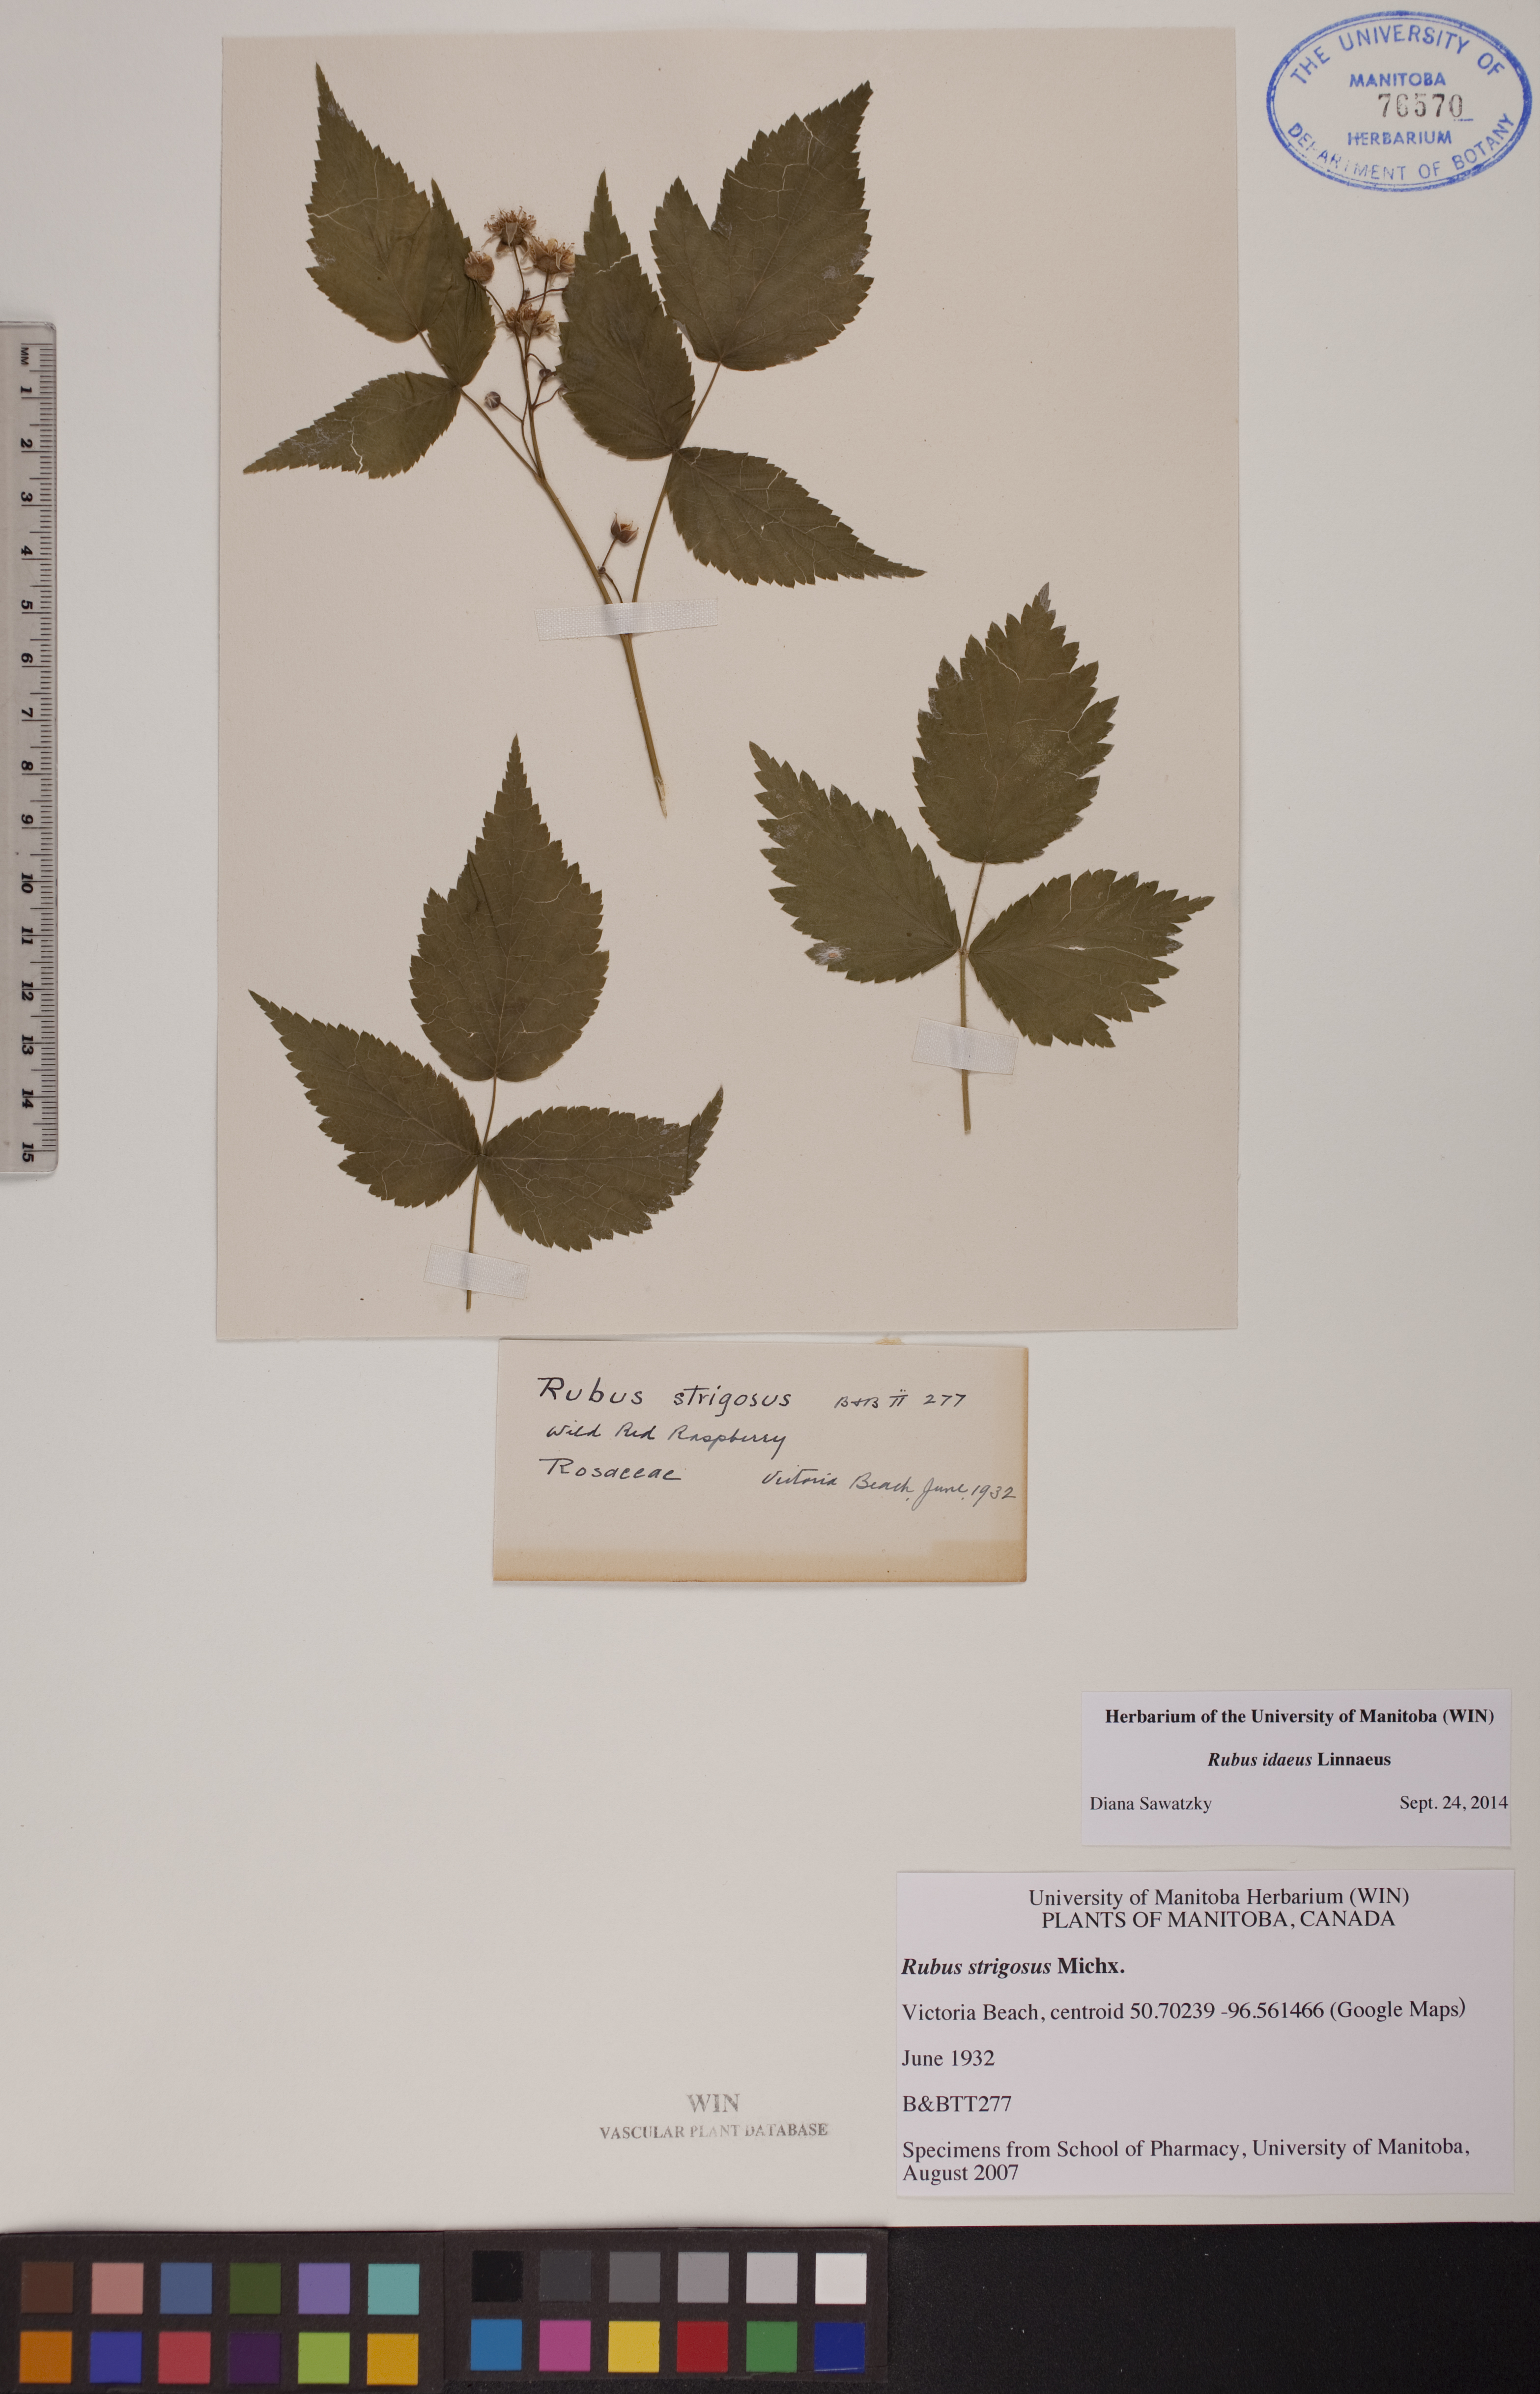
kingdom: Plantae
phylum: Tracheophyta
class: Magnoliopsida
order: Rosales
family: Rosaceae
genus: Rubus
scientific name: Rubus idaeus
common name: Raspberry
